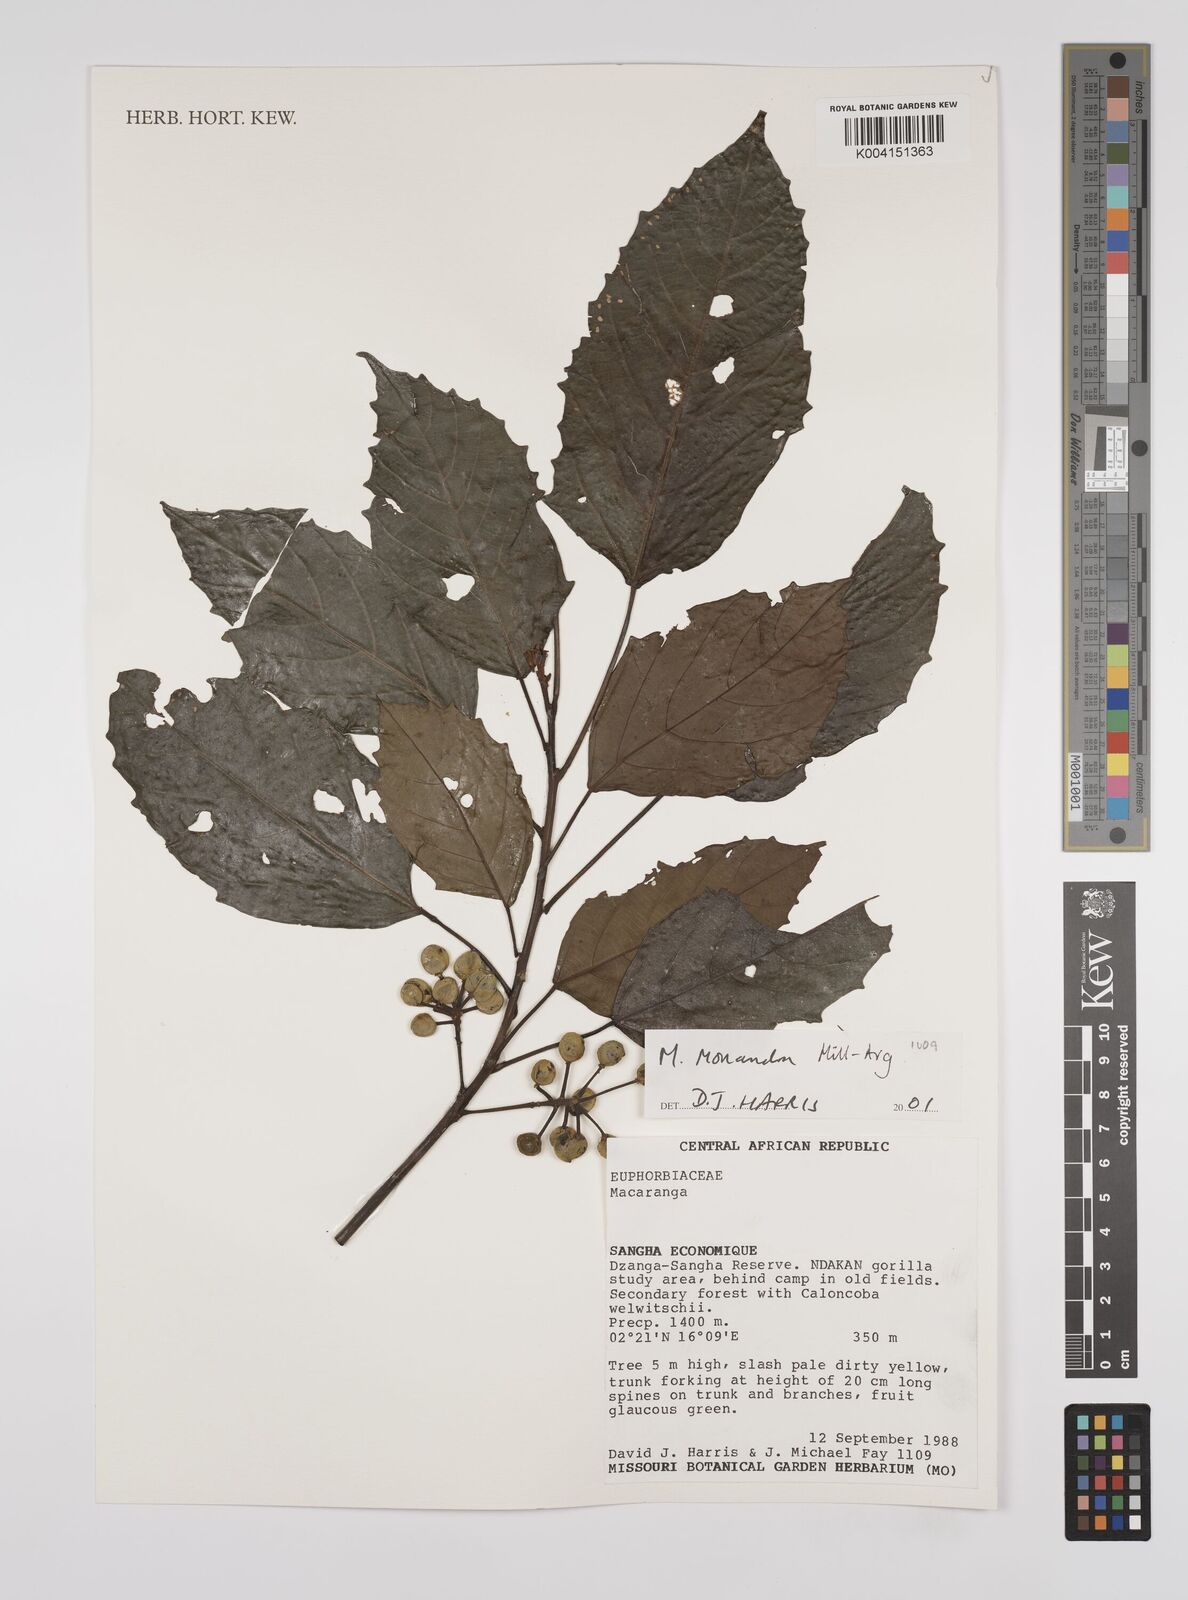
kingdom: Plantae
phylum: Tracheophyta
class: Magnoliopsida
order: Malpighiales
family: Euphorbiaceae
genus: Macaranga
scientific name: Macaranga monandra
